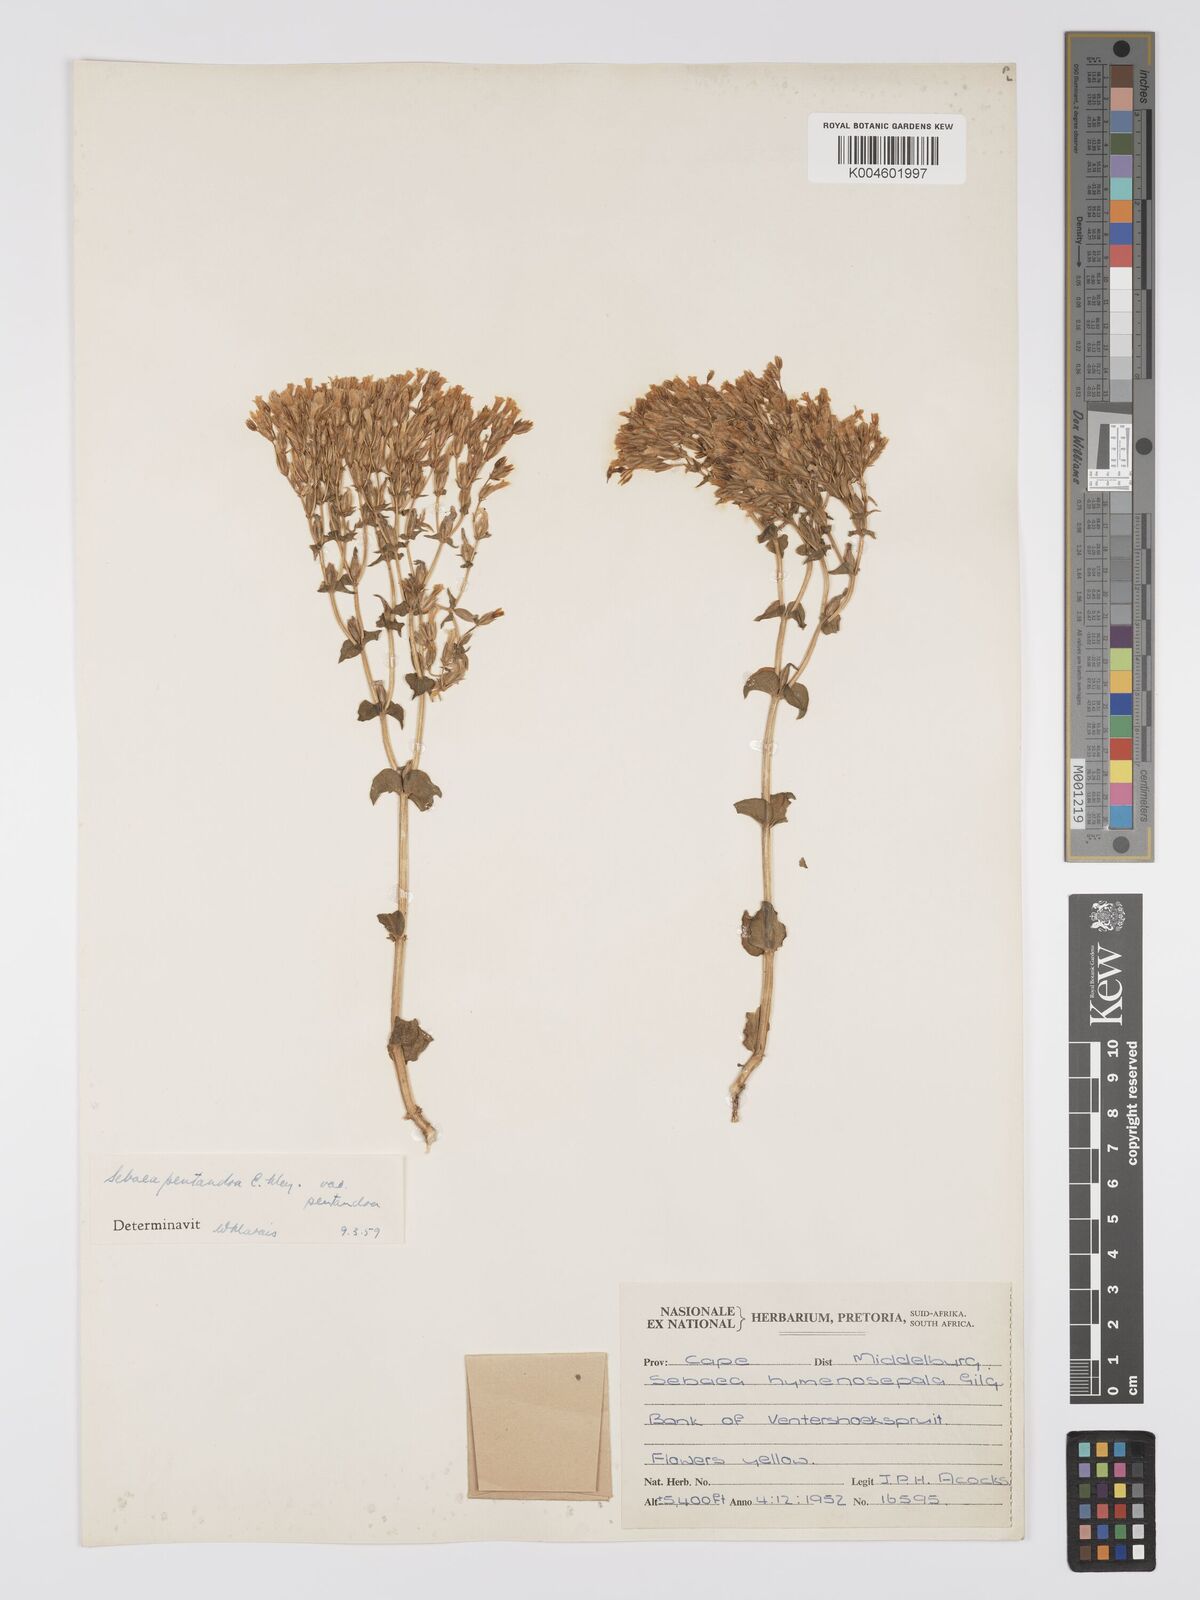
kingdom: Plantae
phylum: Tracheophyta
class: Magnoliopsida
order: Gentianales
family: Gentianaceae
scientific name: Gentianaceae
